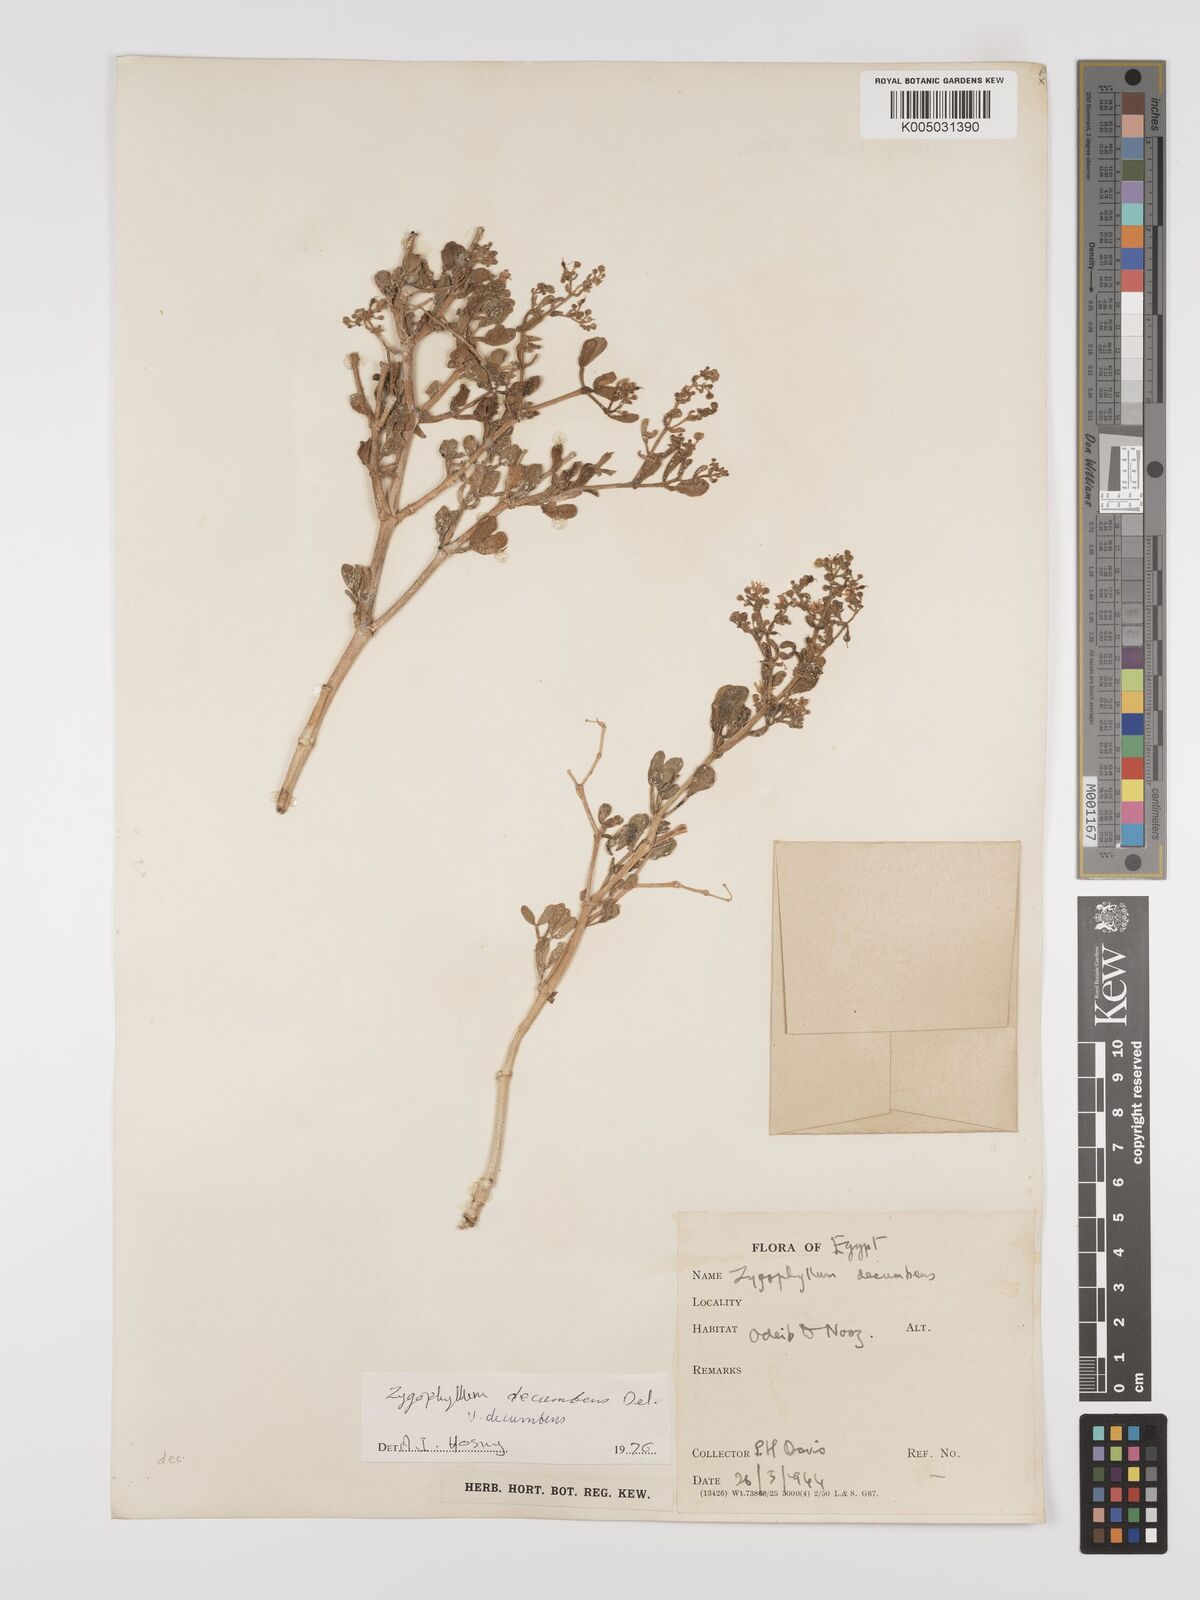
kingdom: Plantae
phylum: Tracheophyta
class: Magnoliopsida
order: Zygophyllales
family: Zygophyllaceae
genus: Tetraena
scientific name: Tetraena decumbens
